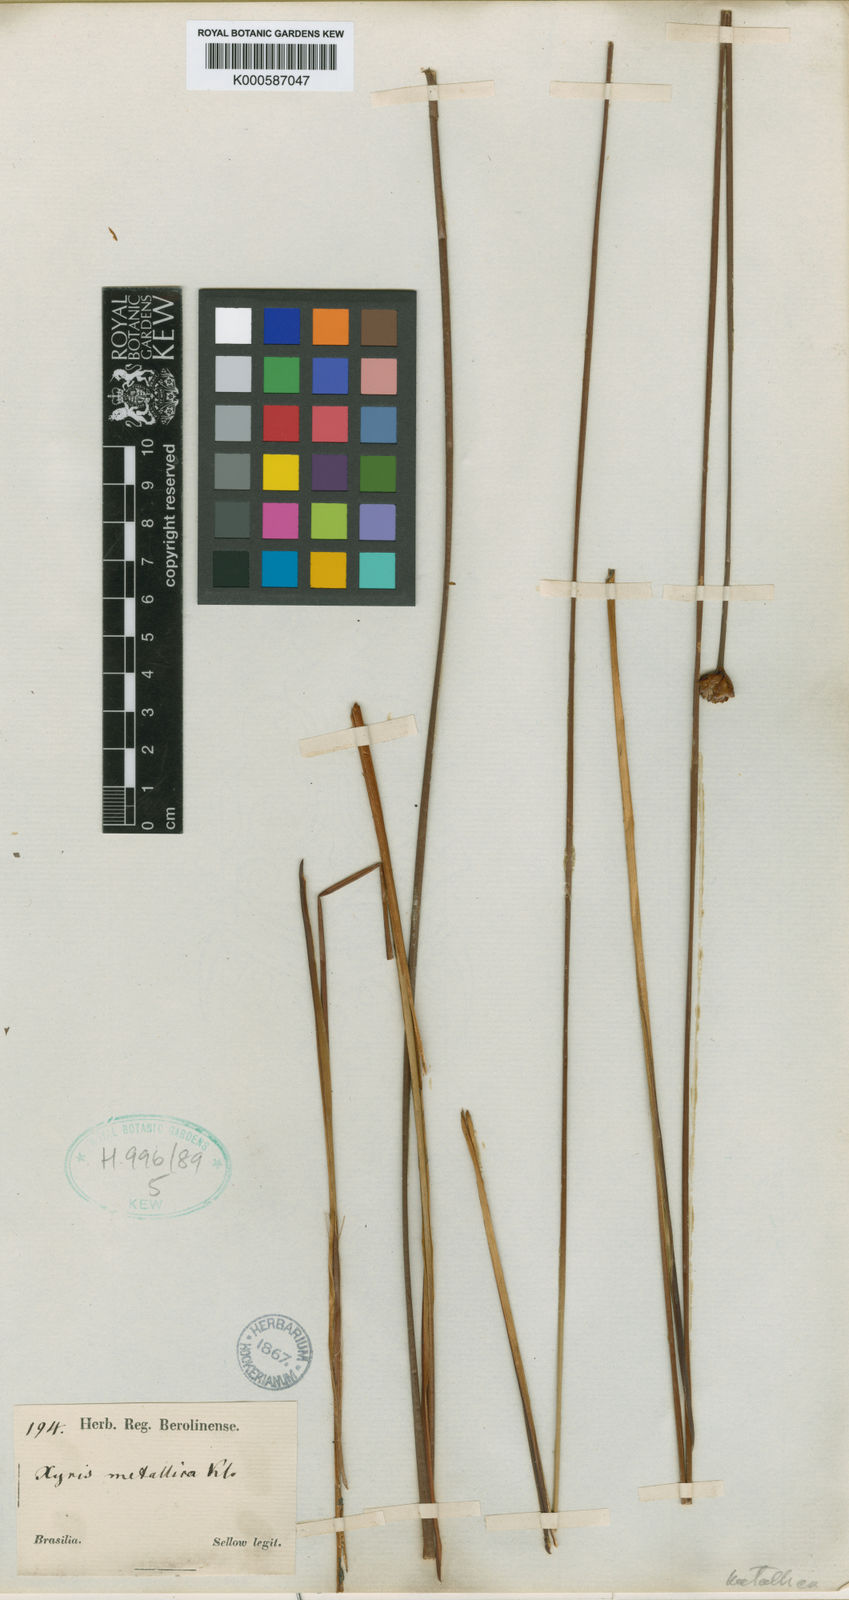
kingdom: Plantae
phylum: Tracheophyta
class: Liliopsida
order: Poales
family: Xyridaceae
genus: Xyris
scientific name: Xyris metallica
